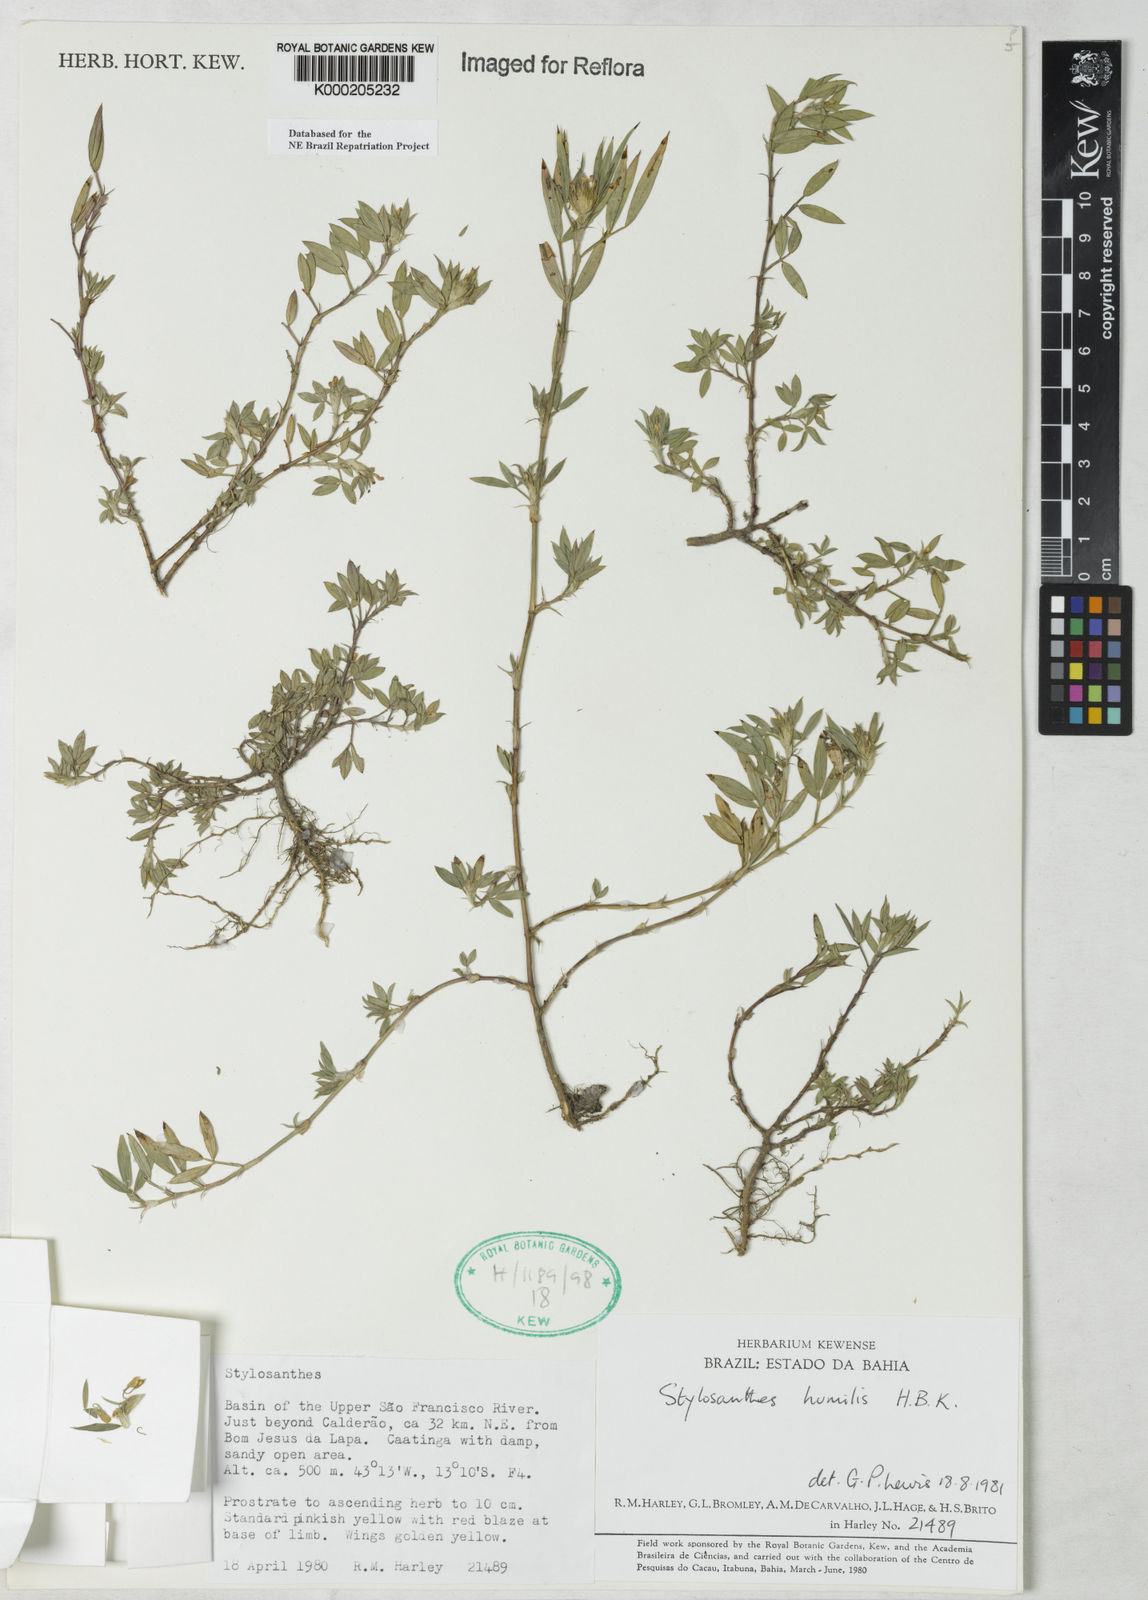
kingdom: Plantae
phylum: Tracheophyta
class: Magnoliopsida
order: Fabales
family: Fabaceae
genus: Stylosanthes
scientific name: Stylosanthes humilis
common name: Townsville stylo
